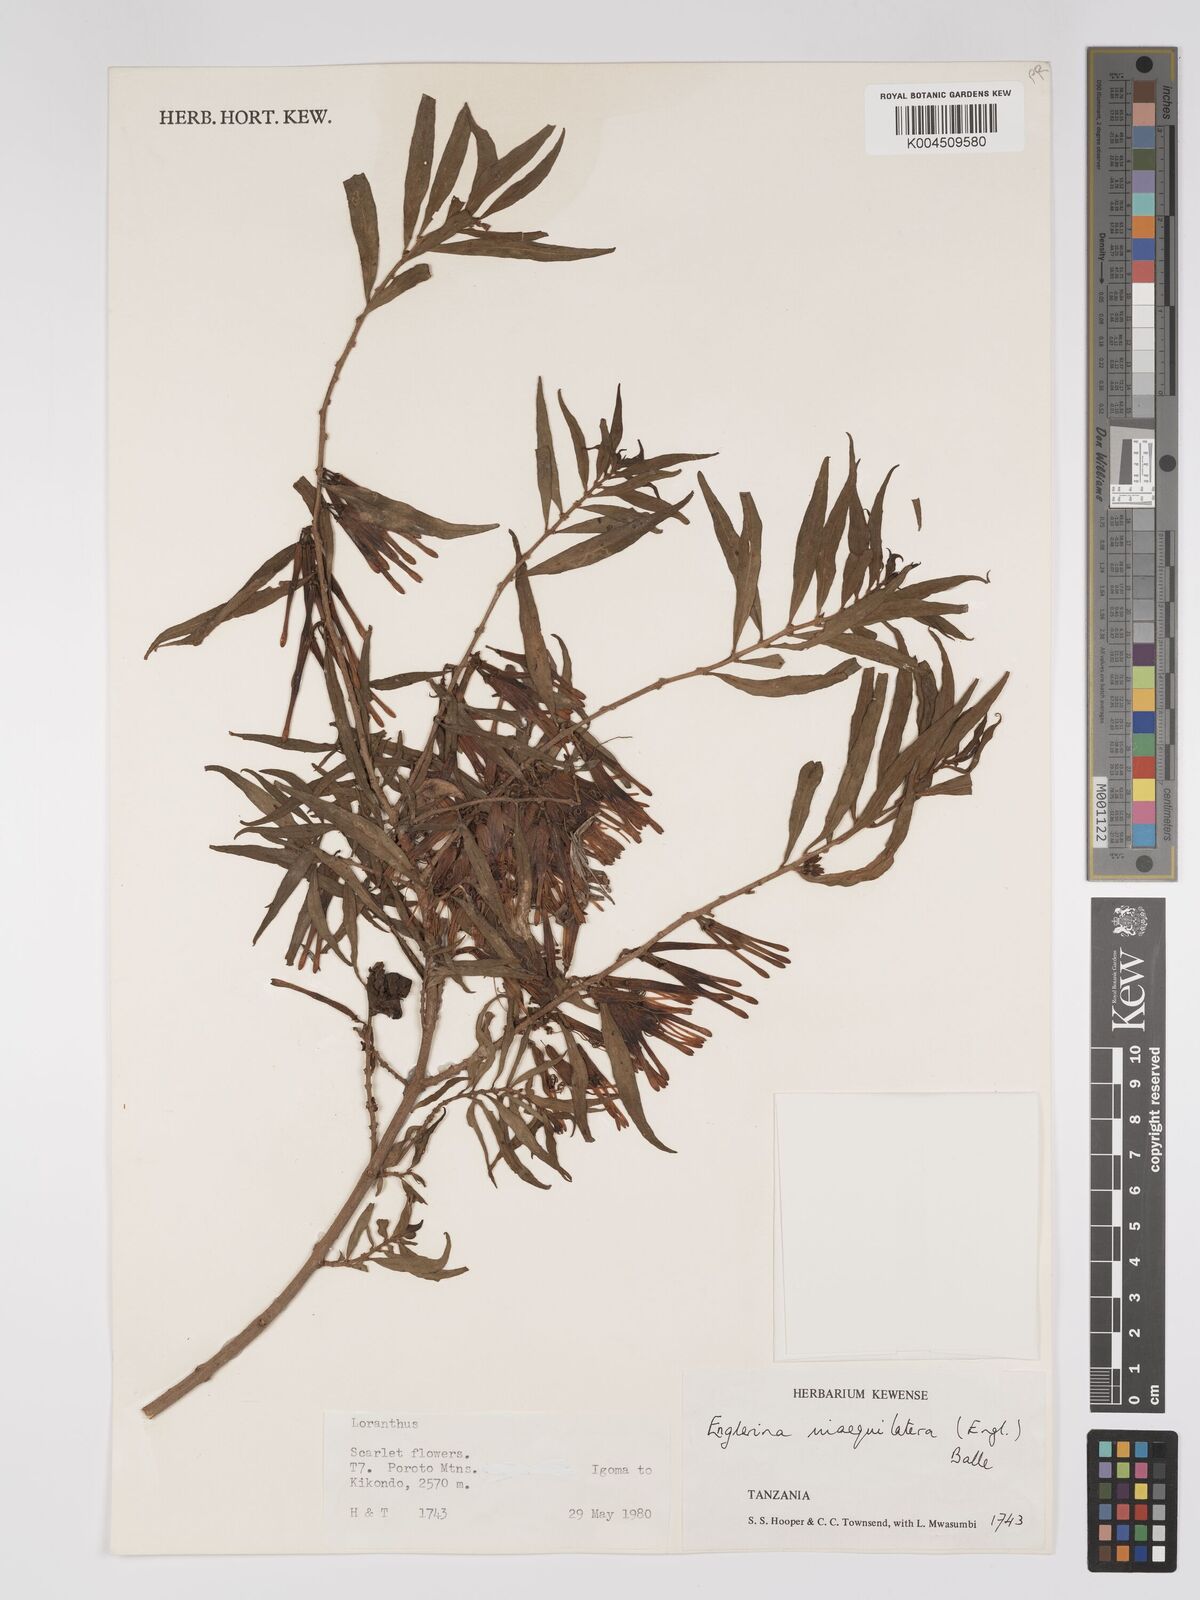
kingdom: Plantae
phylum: Tracheophyta
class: Magnoliopsida
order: Santalales
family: Loranthaceae
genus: Englerina
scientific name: Englerina inaequilatera
